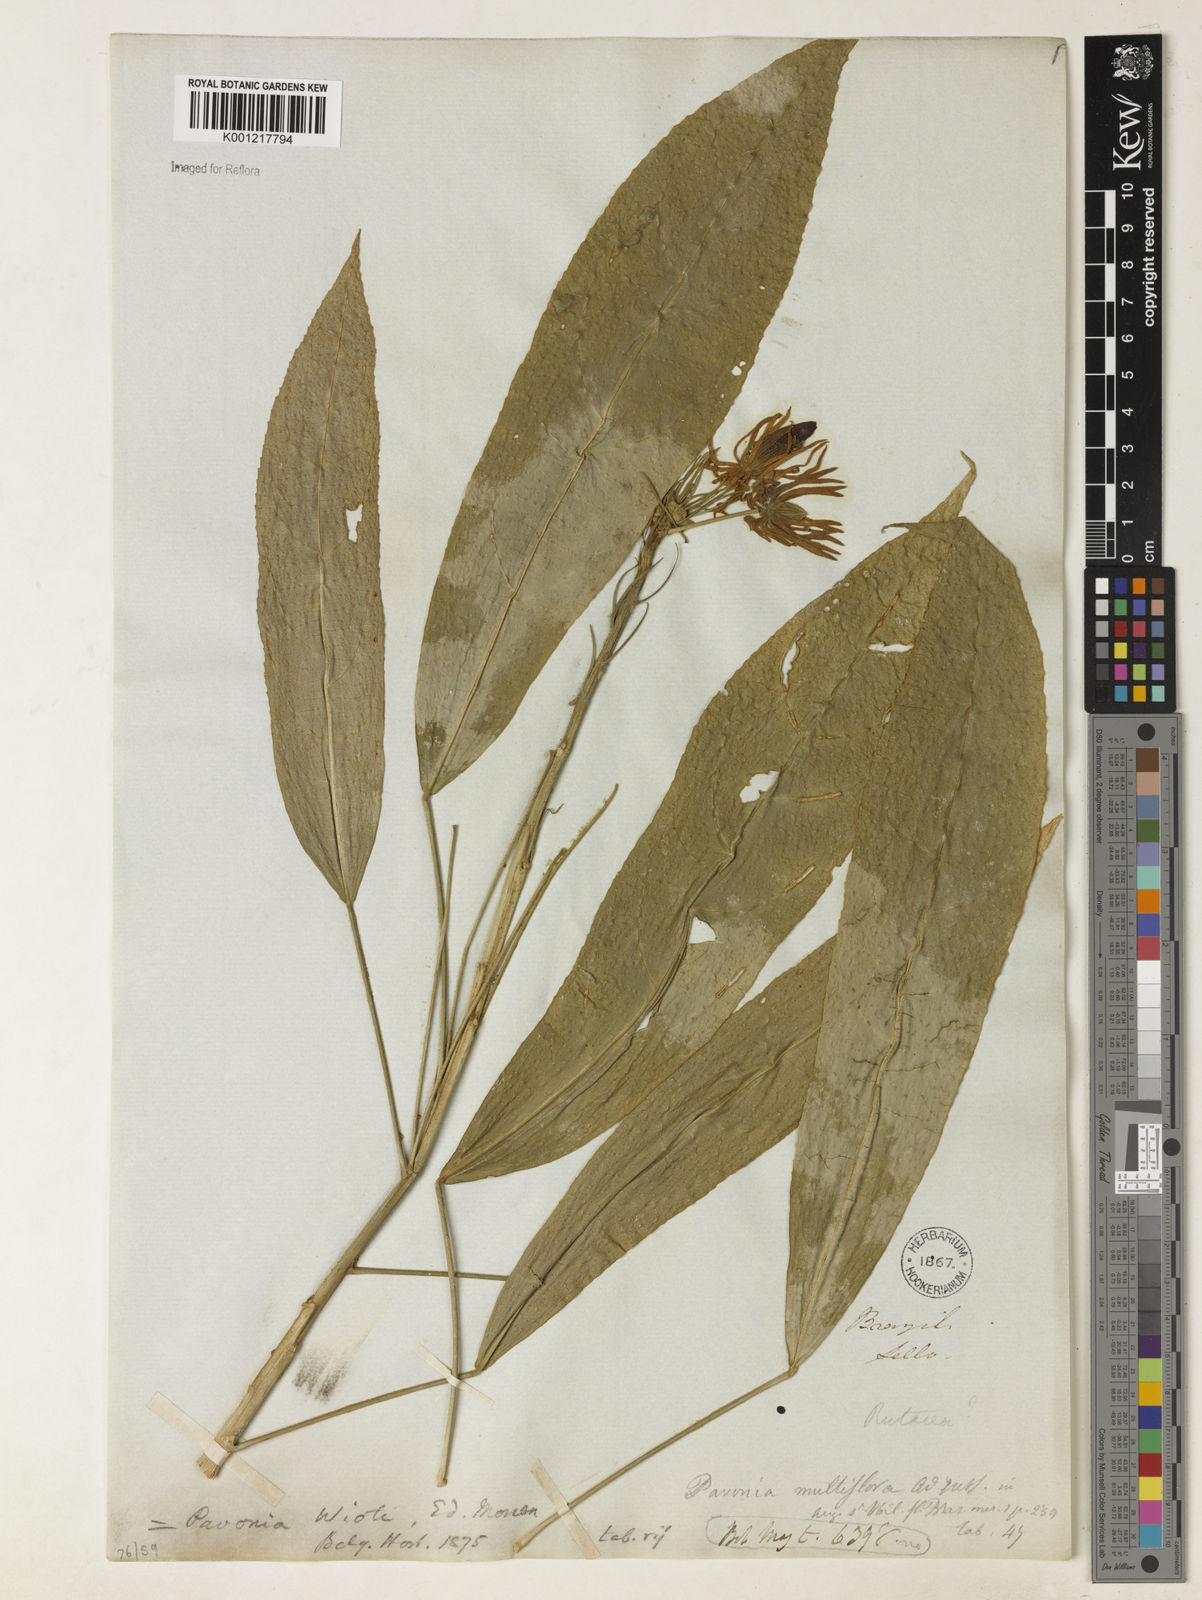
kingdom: Plantae
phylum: Tracheophyta
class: Magnoliopsida
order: Malvales
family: Malvaceae
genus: Pavonia
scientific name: Pavonia multiflora
